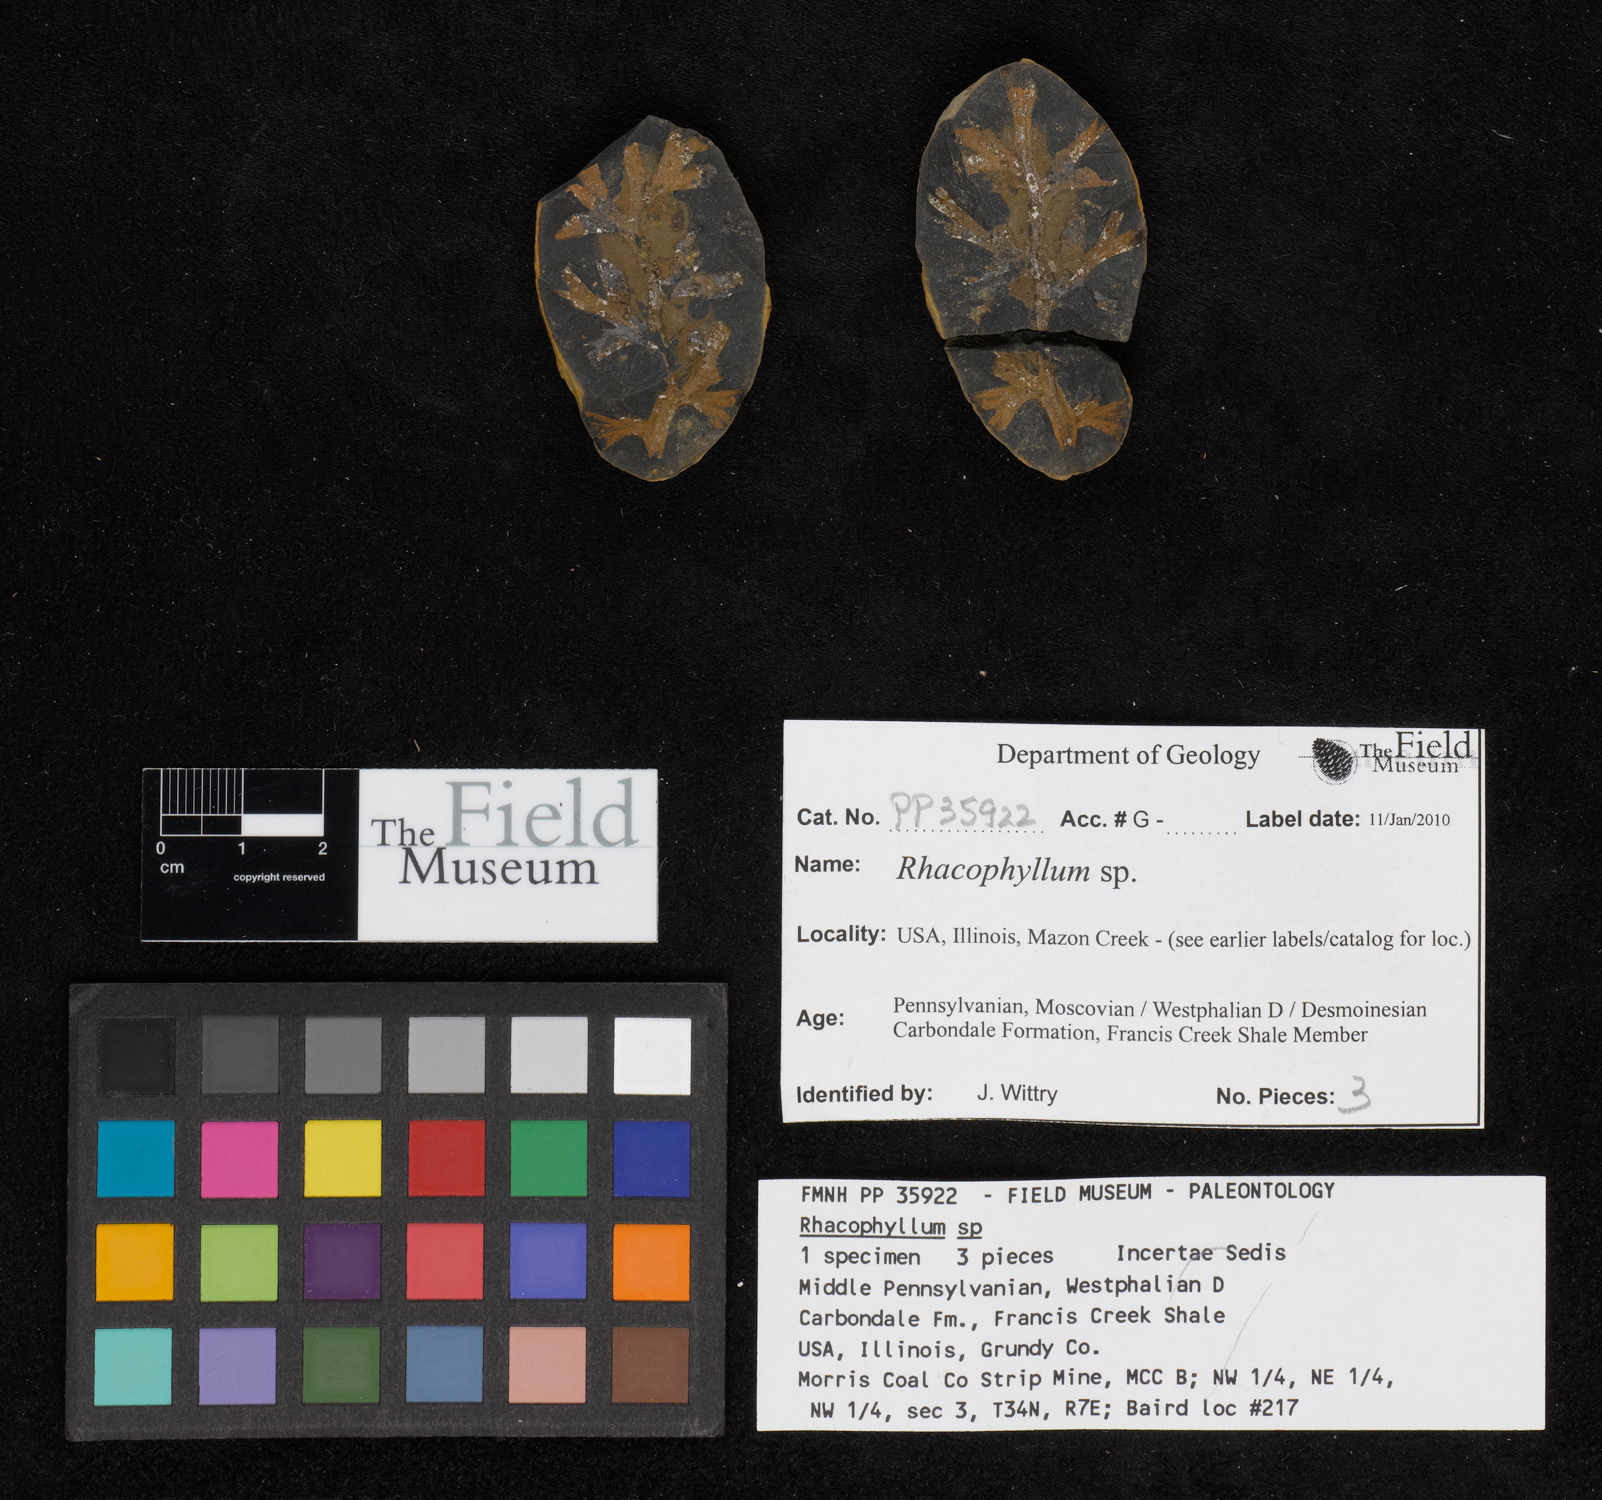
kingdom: Plantae
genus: Rhacophyllum
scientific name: Rhacophyllum
